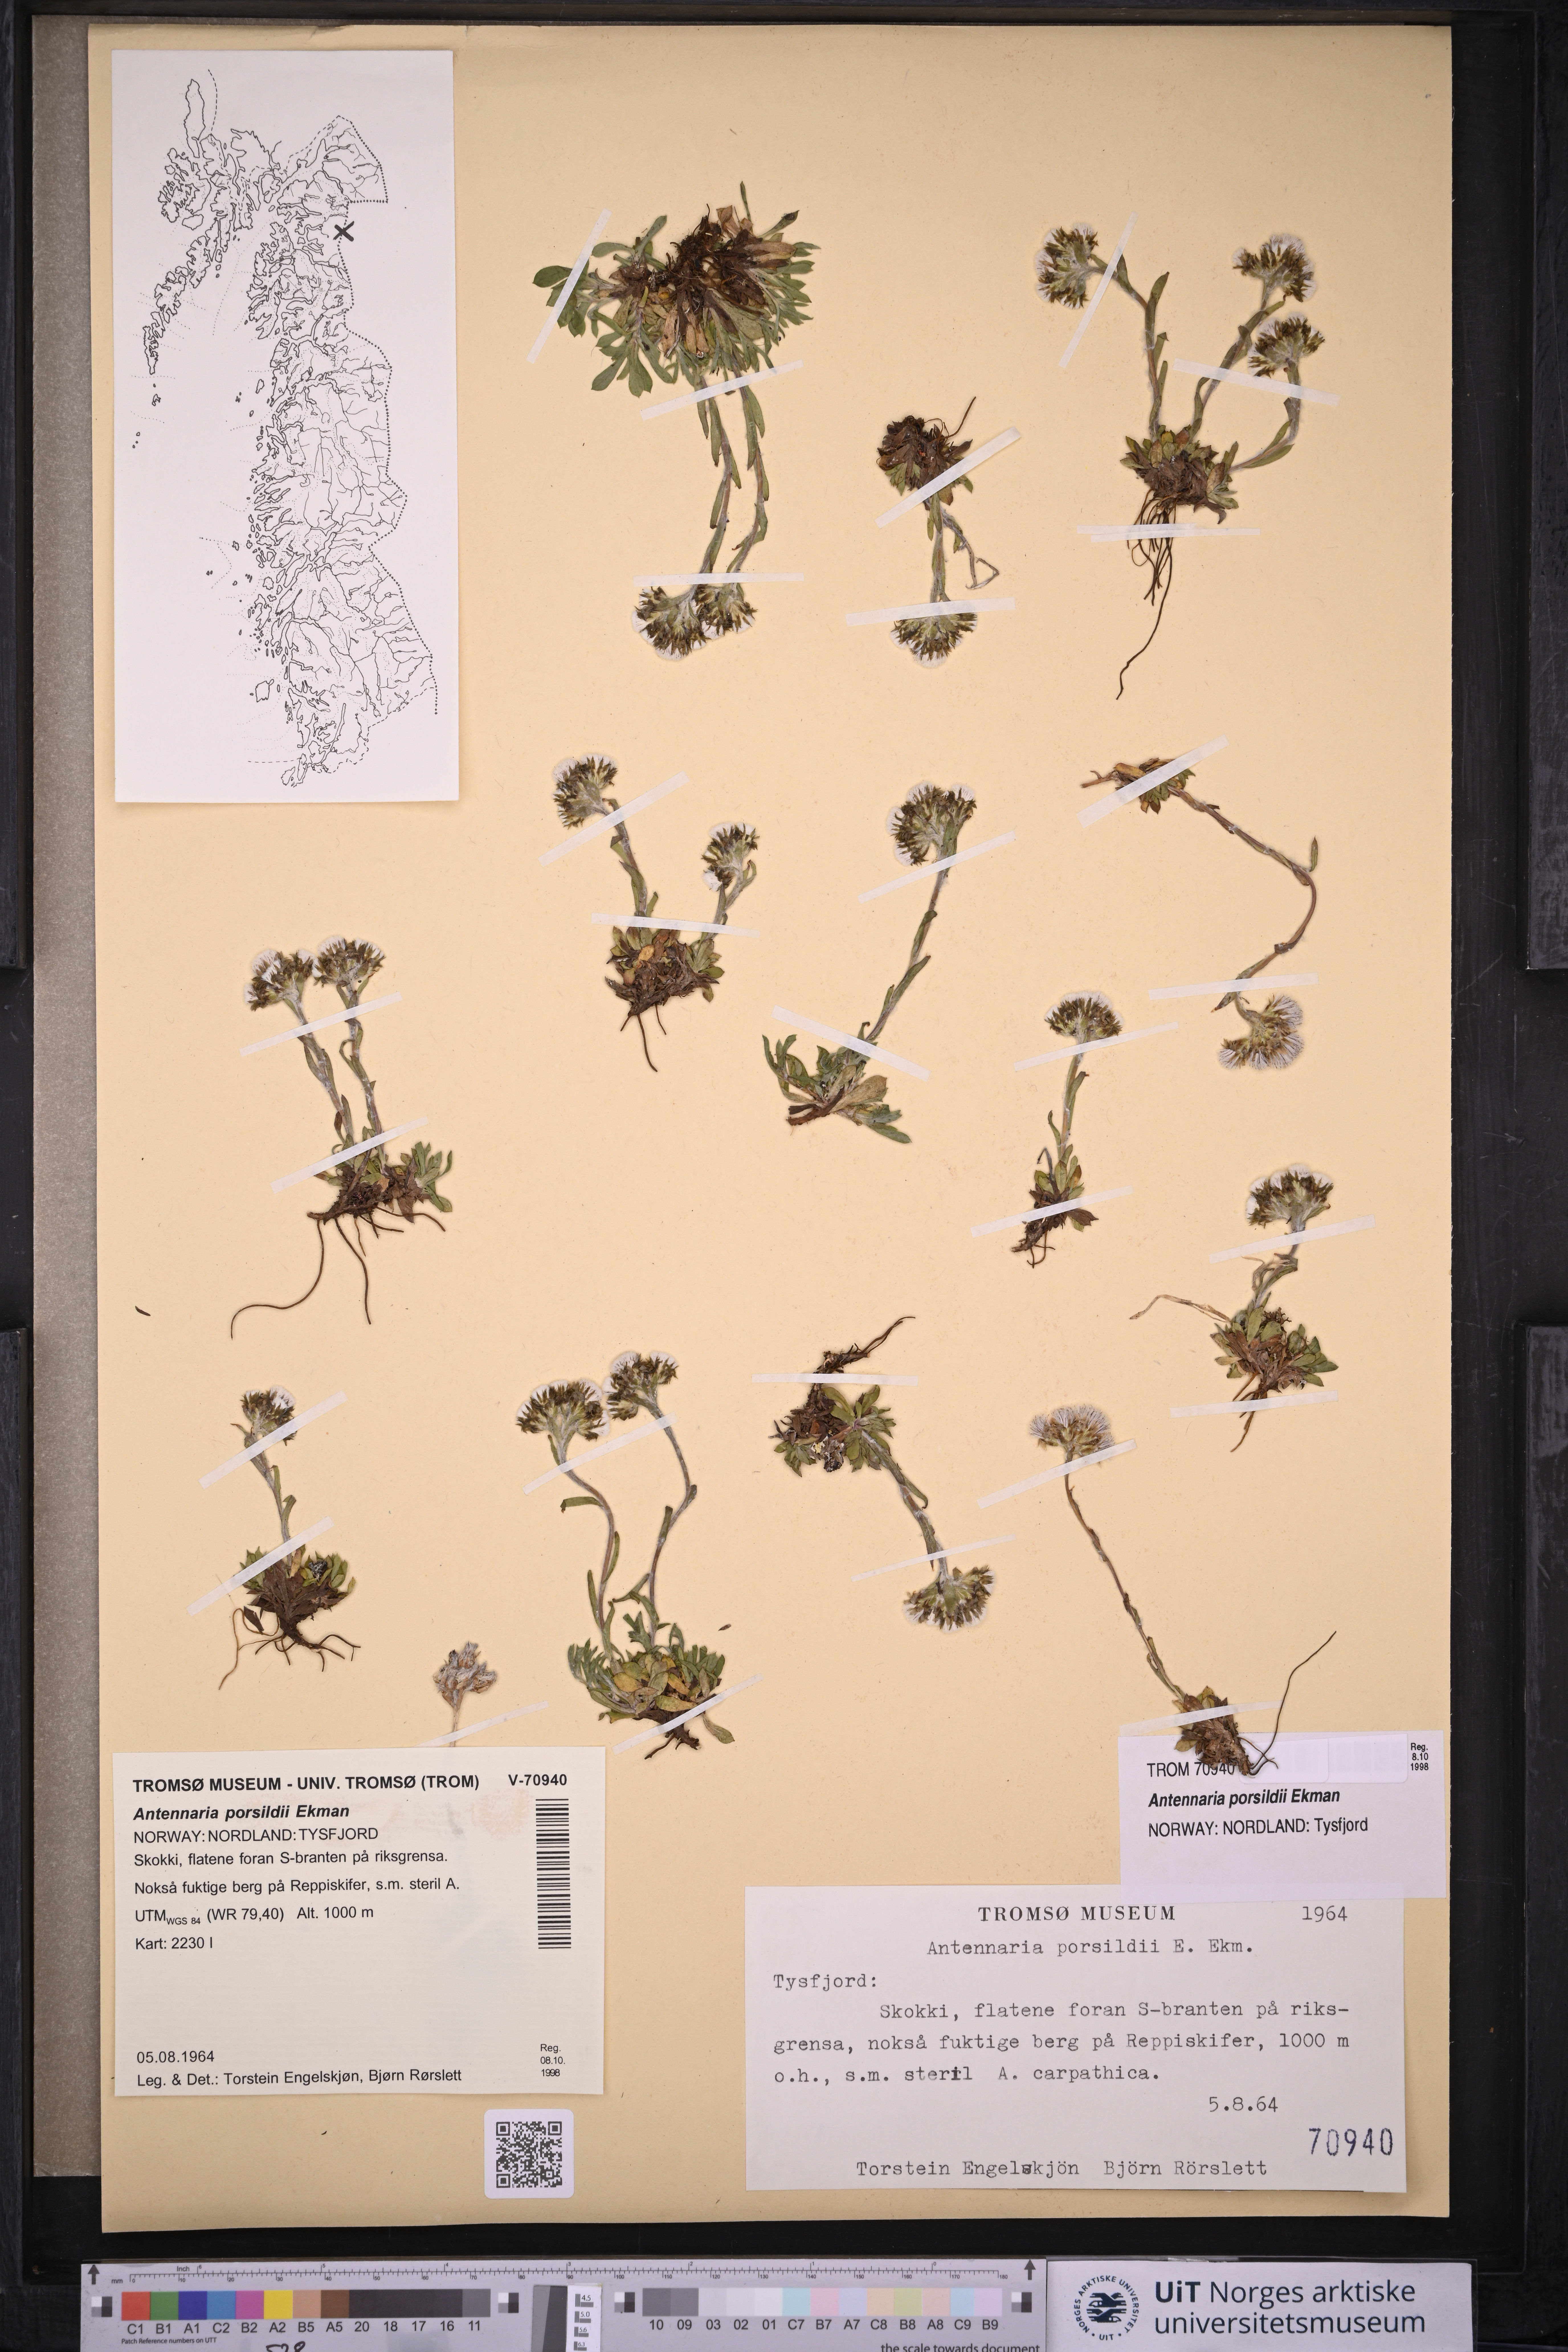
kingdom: Plantae
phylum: Tracheophyta
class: Magnoliopsida
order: Asterales
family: Asteraceae
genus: Antennaria
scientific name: Antennaria porsildii
